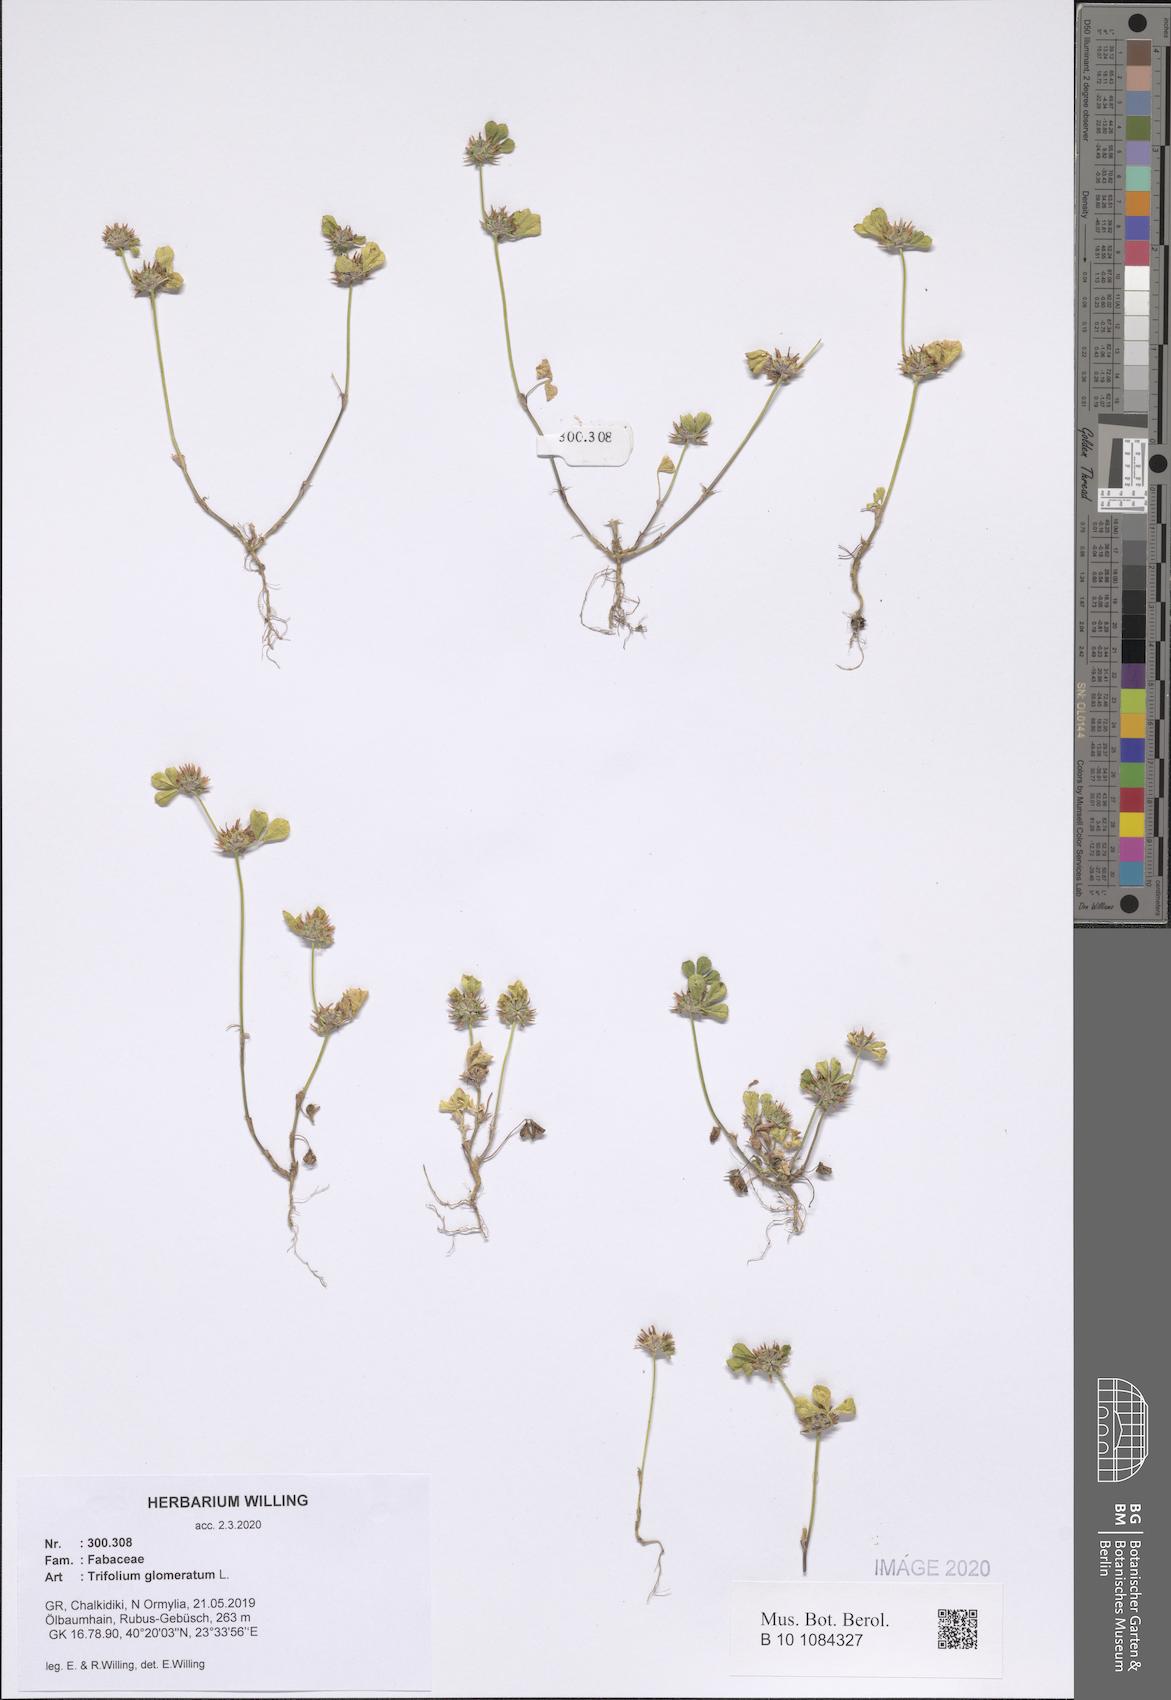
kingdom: Plantae
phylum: Tracheophyta
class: Magnoliopsida
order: Fabales
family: Fabaceae
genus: Trifolium
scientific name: Trifolium glomeratum
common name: Clustered clover
